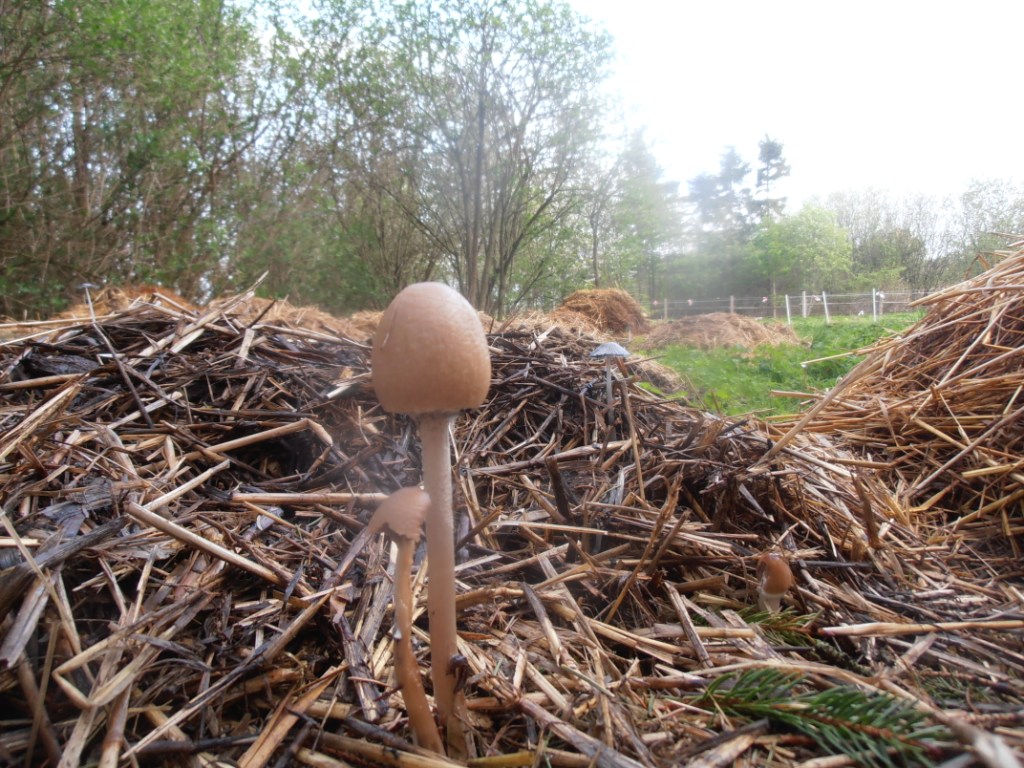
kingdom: Fungi
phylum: Basidiomycota
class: Agaricomycetes
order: Agaricales
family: Bolbitiaceae
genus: Panaeolus
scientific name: Panaeolus semiovatus
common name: ring-glanshat
